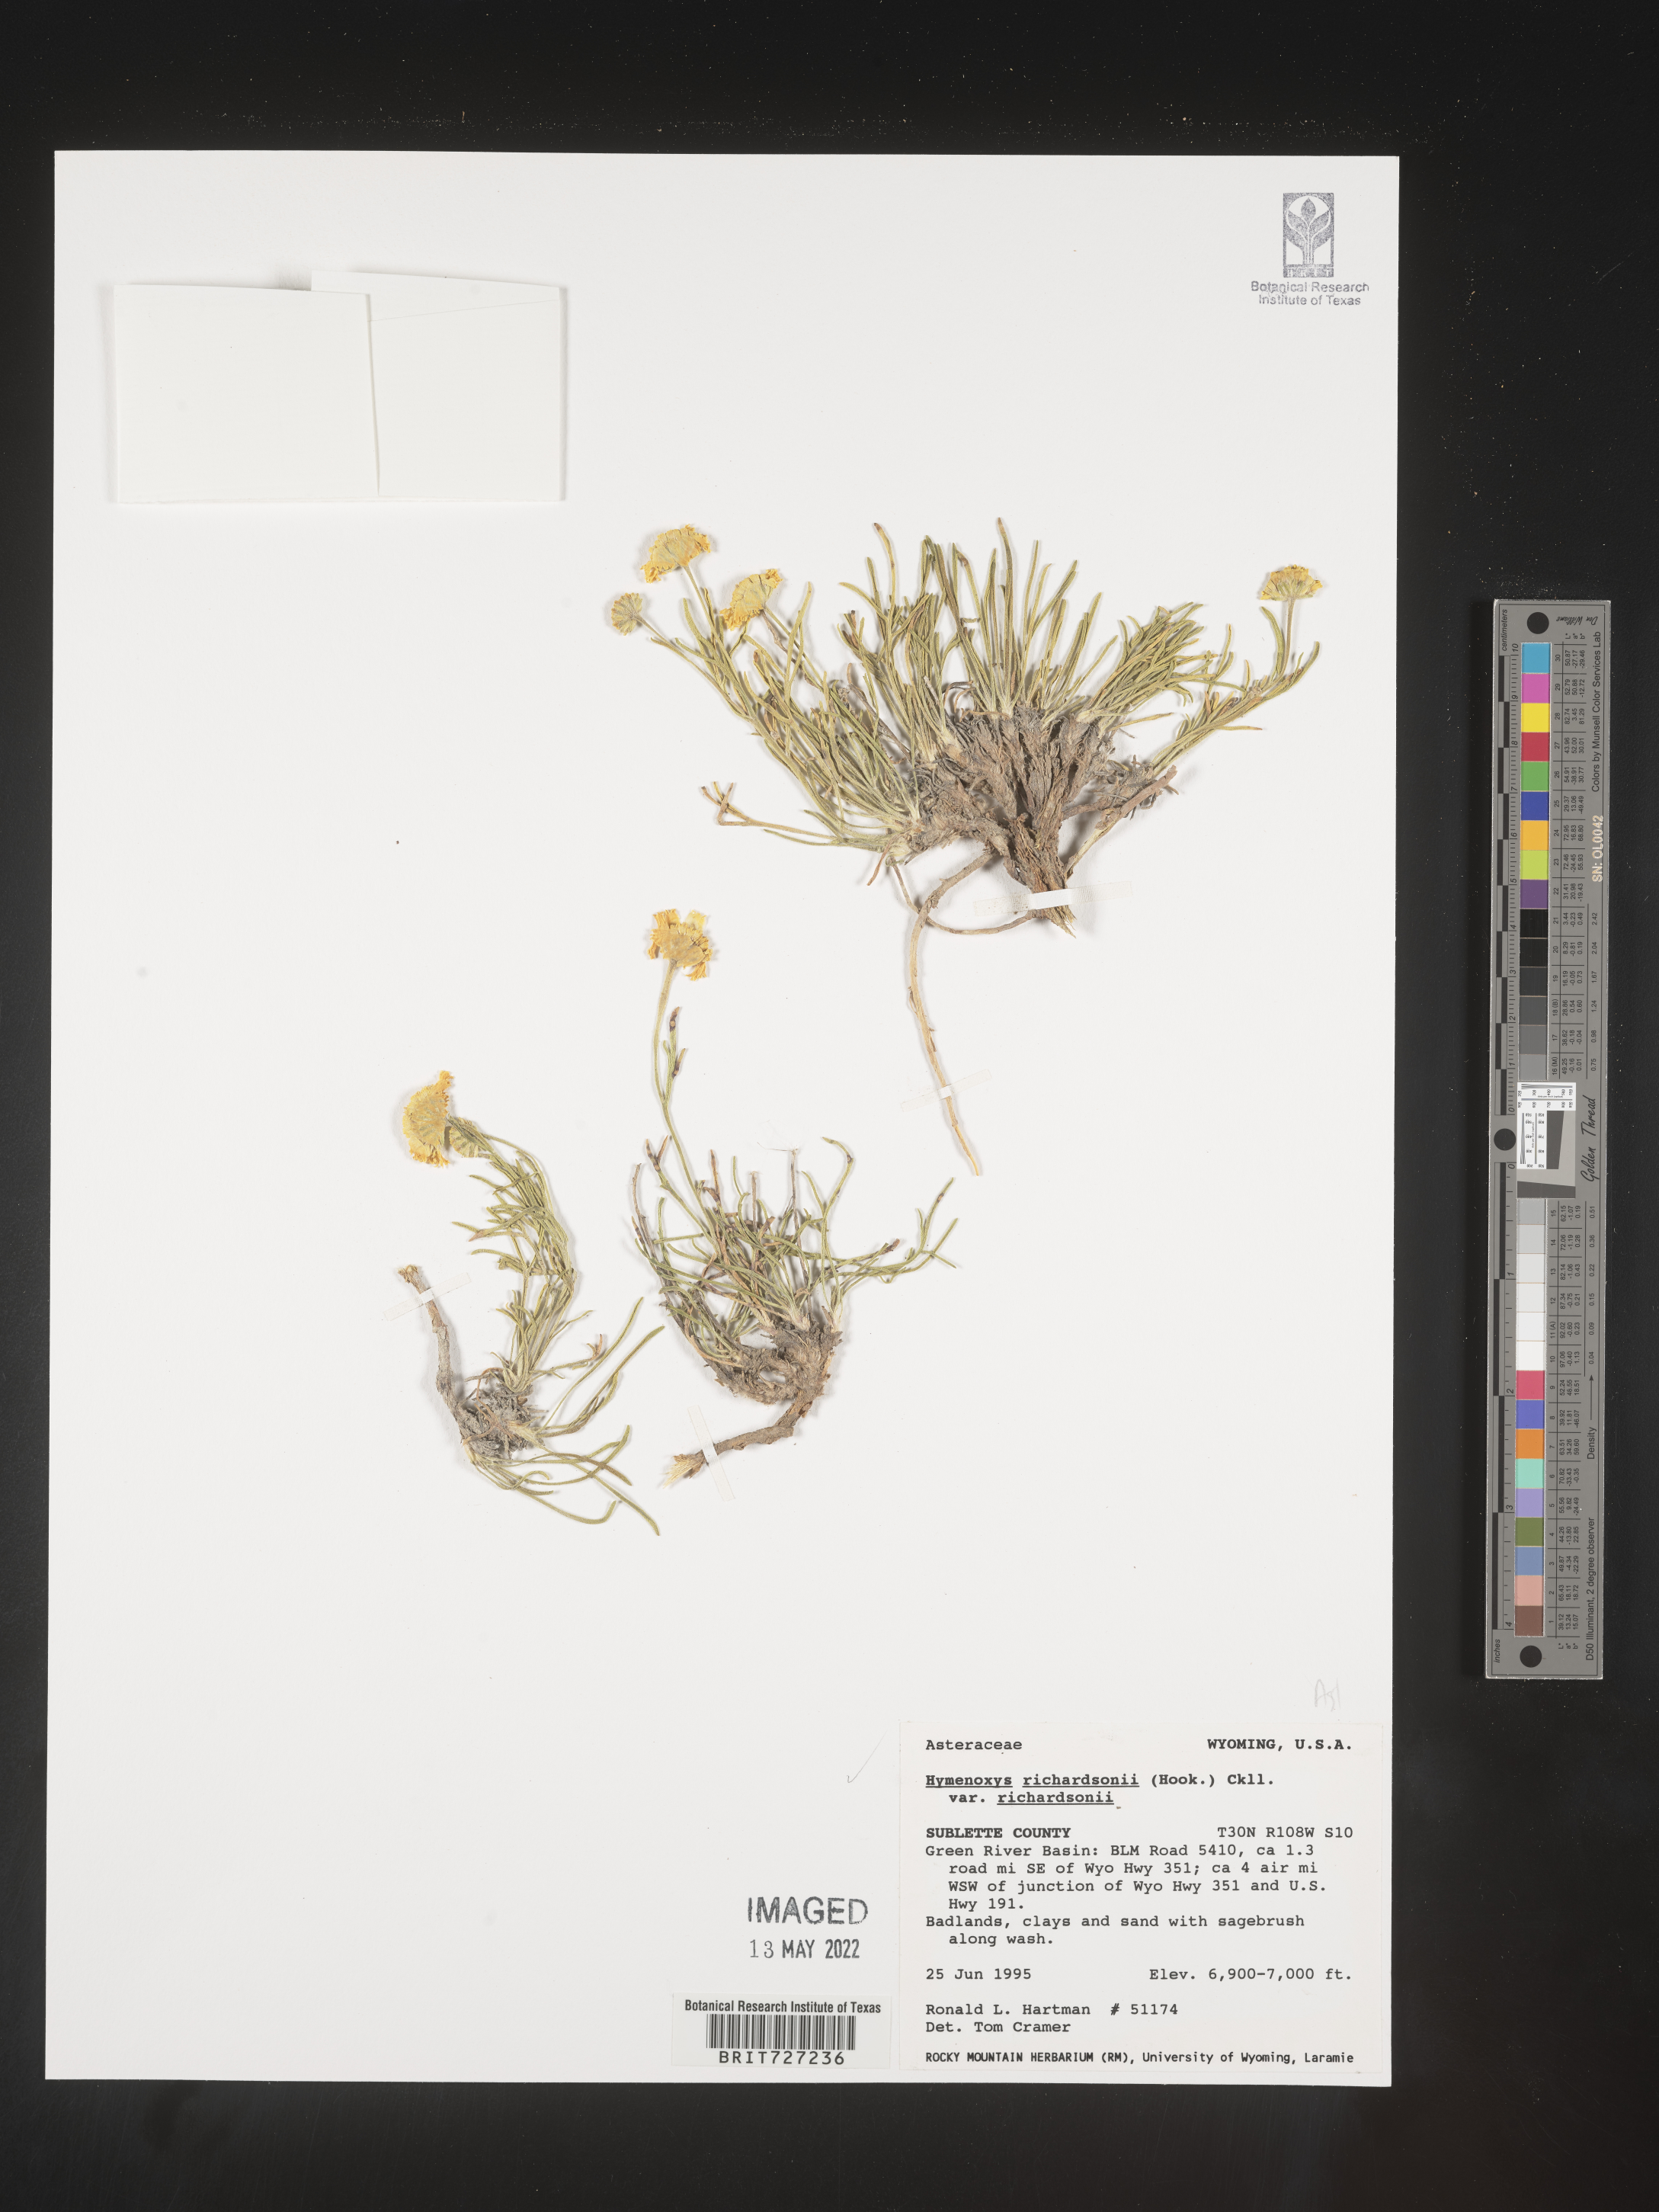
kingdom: Plantae
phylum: Tracheophyta
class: Magnoliopsida
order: Asterales
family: Asteraceae
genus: Hymenoxys
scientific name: Hymenoxys richardsonii
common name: Pingue rubberweed
